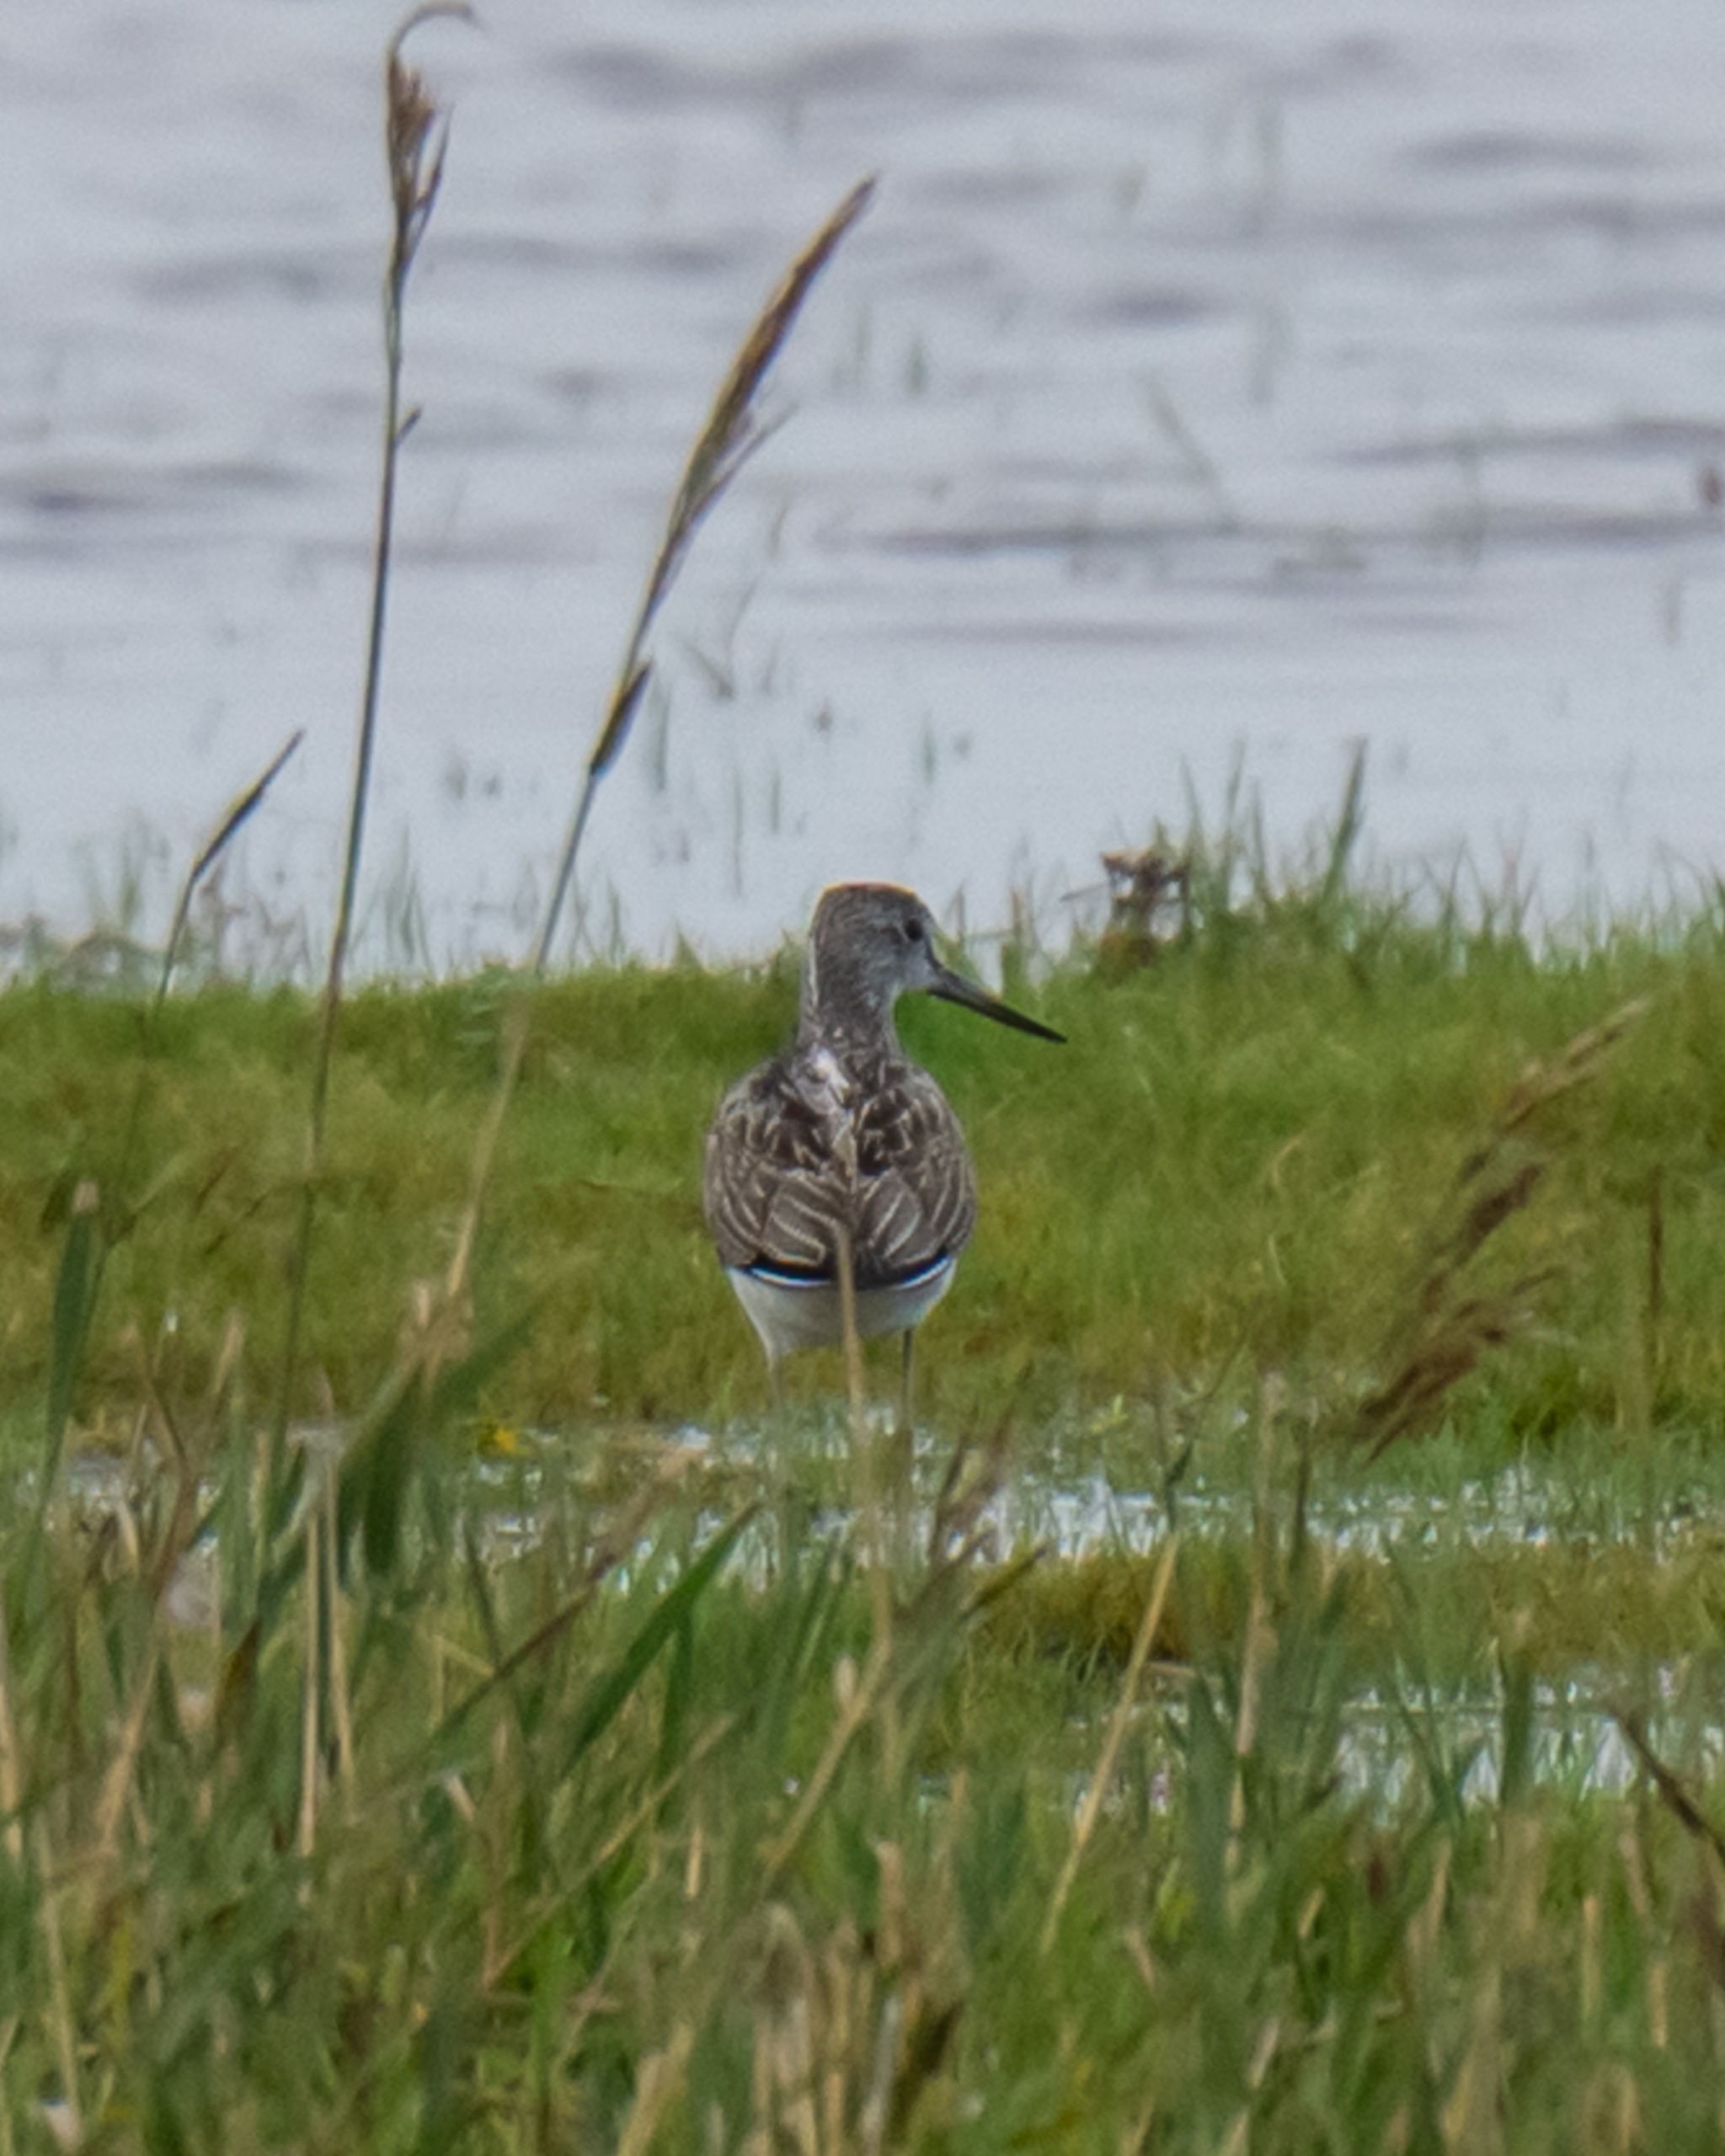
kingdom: Animalia
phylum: Chordata
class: Aves
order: Charadriiformes
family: Scolopacidae
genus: Tringa
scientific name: Tringa nebularia
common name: Hvidklire
